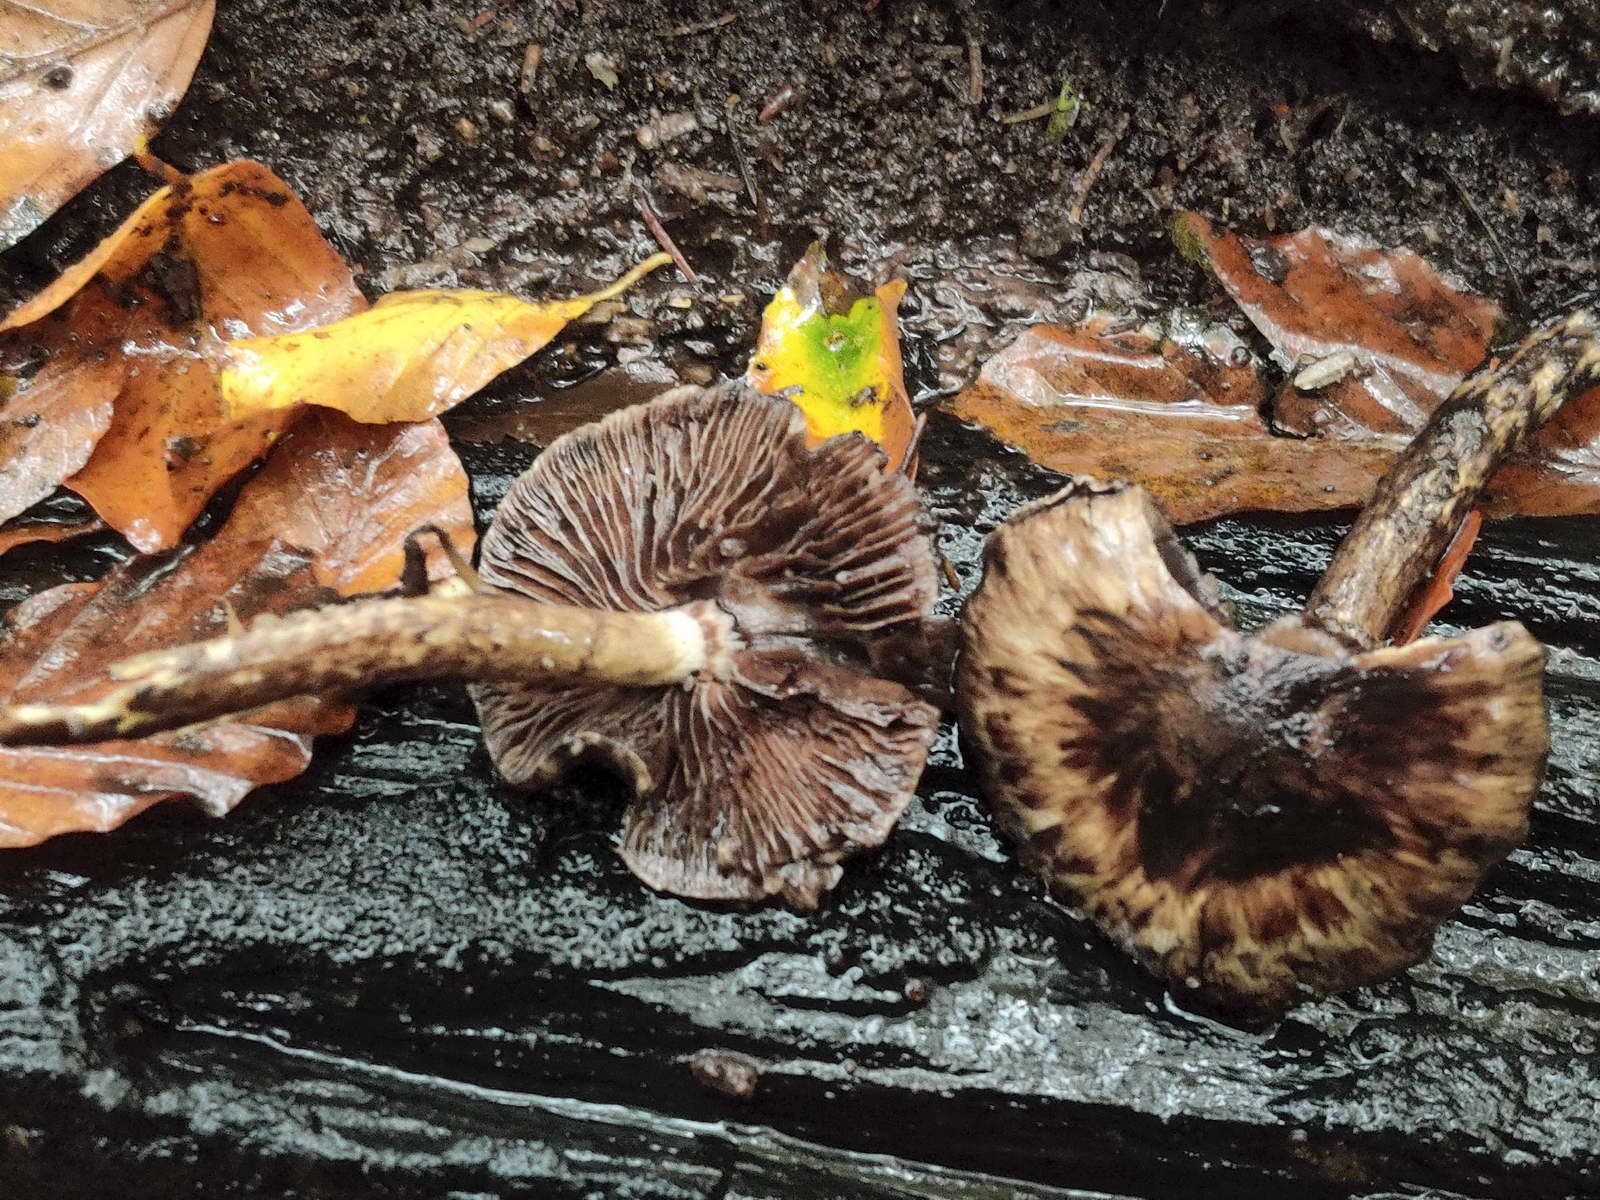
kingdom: Fungi
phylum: Basidiomycota
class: Agaricomycetes
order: Agaricales
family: Psathyrellaceae
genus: Psathyrella
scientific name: Psathyrella
